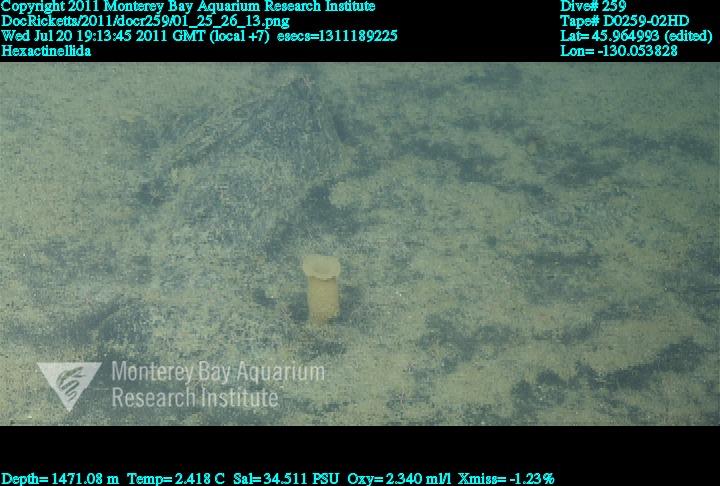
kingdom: Animalia
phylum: Porifera
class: Hexactinellida
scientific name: Hexactinellida
